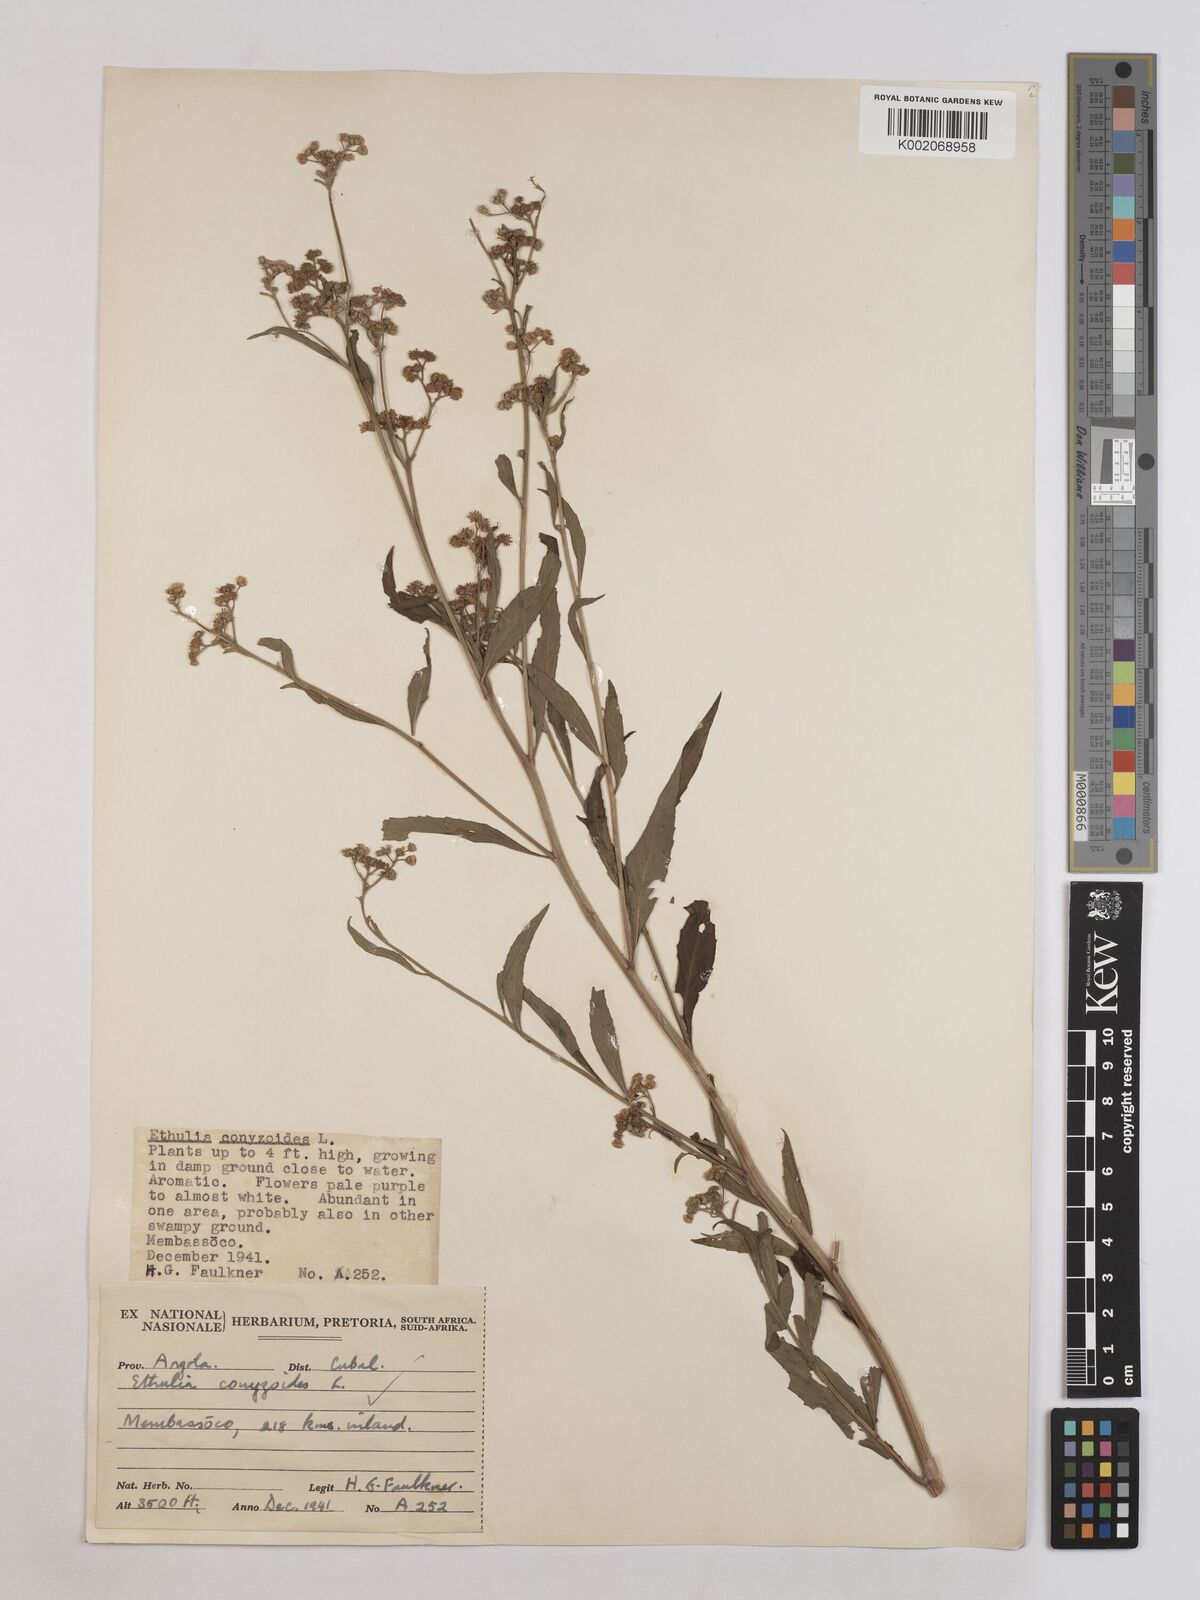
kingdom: Plantae
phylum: Tracheophyta
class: Magnoliopsida
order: Asterales
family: Asteraceae
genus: Ethulia
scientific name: Ethulia conyzoides
